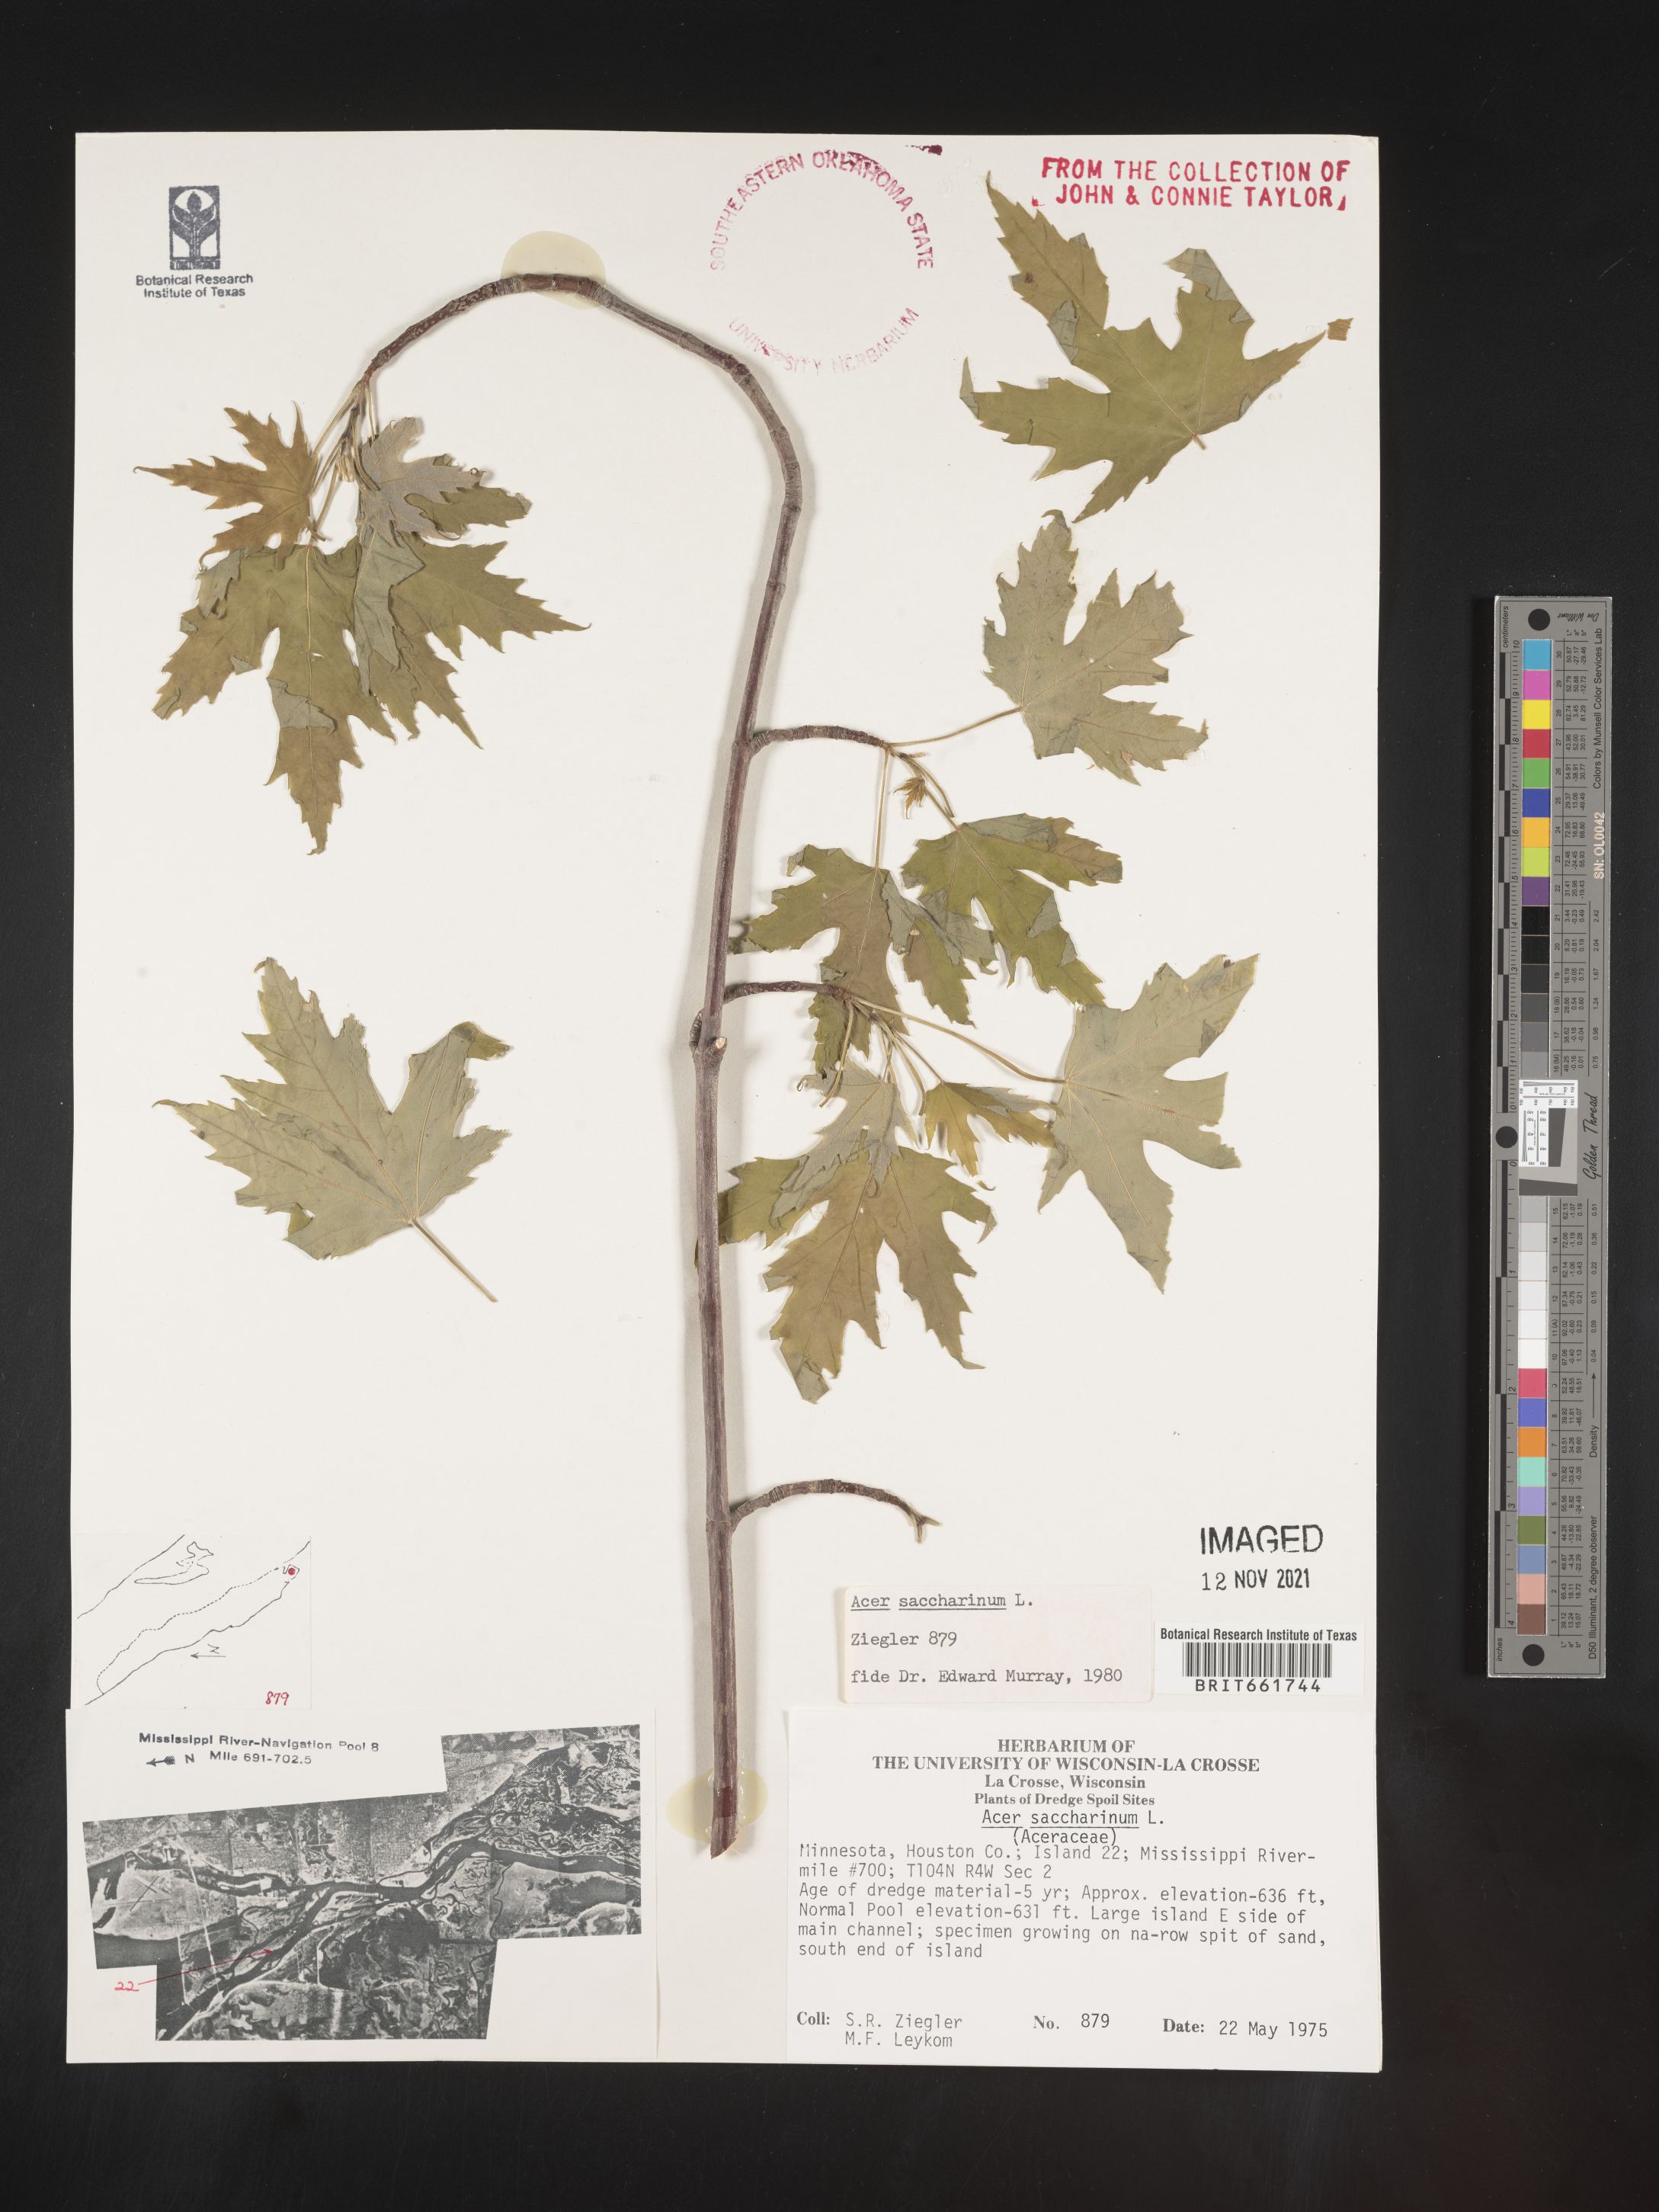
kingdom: Plantae
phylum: Tracheophyta
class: Magnoliopsida
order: Sapindales
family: Sapindaceae
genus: Acer
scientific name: Acer saccharinum
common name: Silver maple
